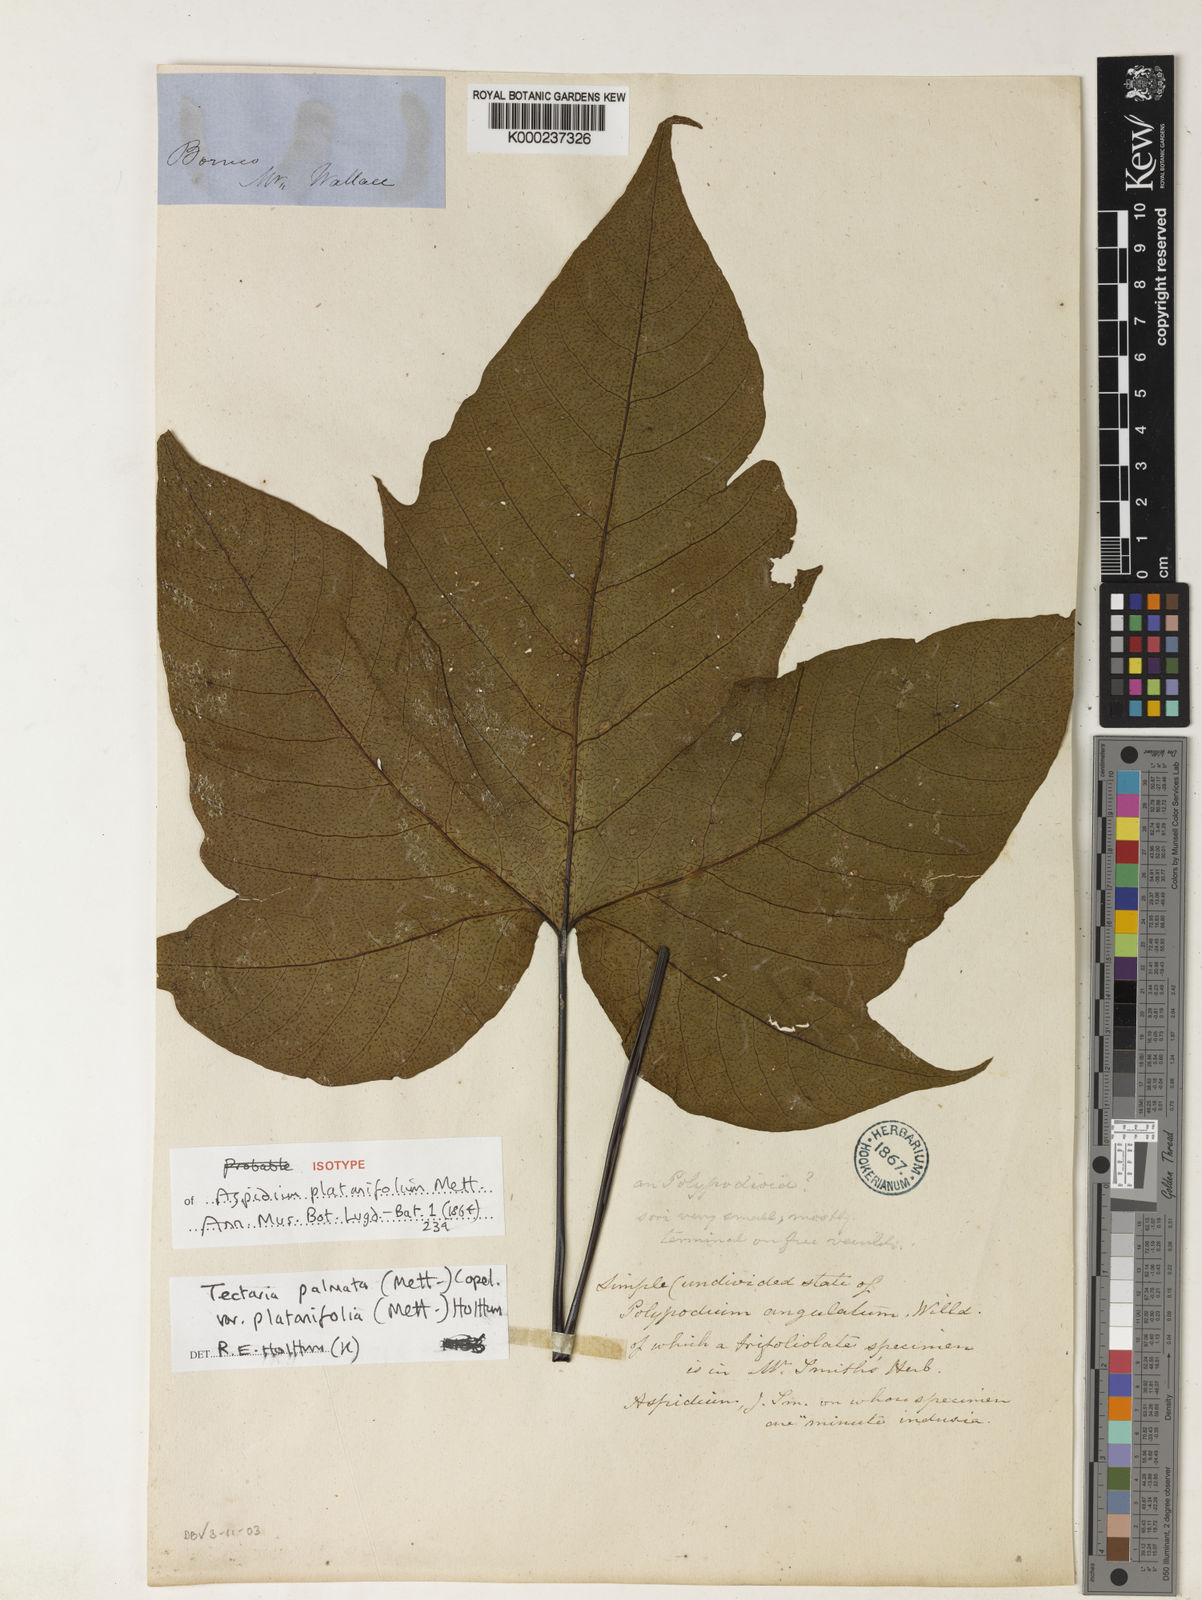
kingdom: Plantae
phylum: Tracheophyta
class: Polypodiopsida
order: Polypodiales
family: Tectariaceae
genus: Tectaria
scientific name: Tectaria palmata
